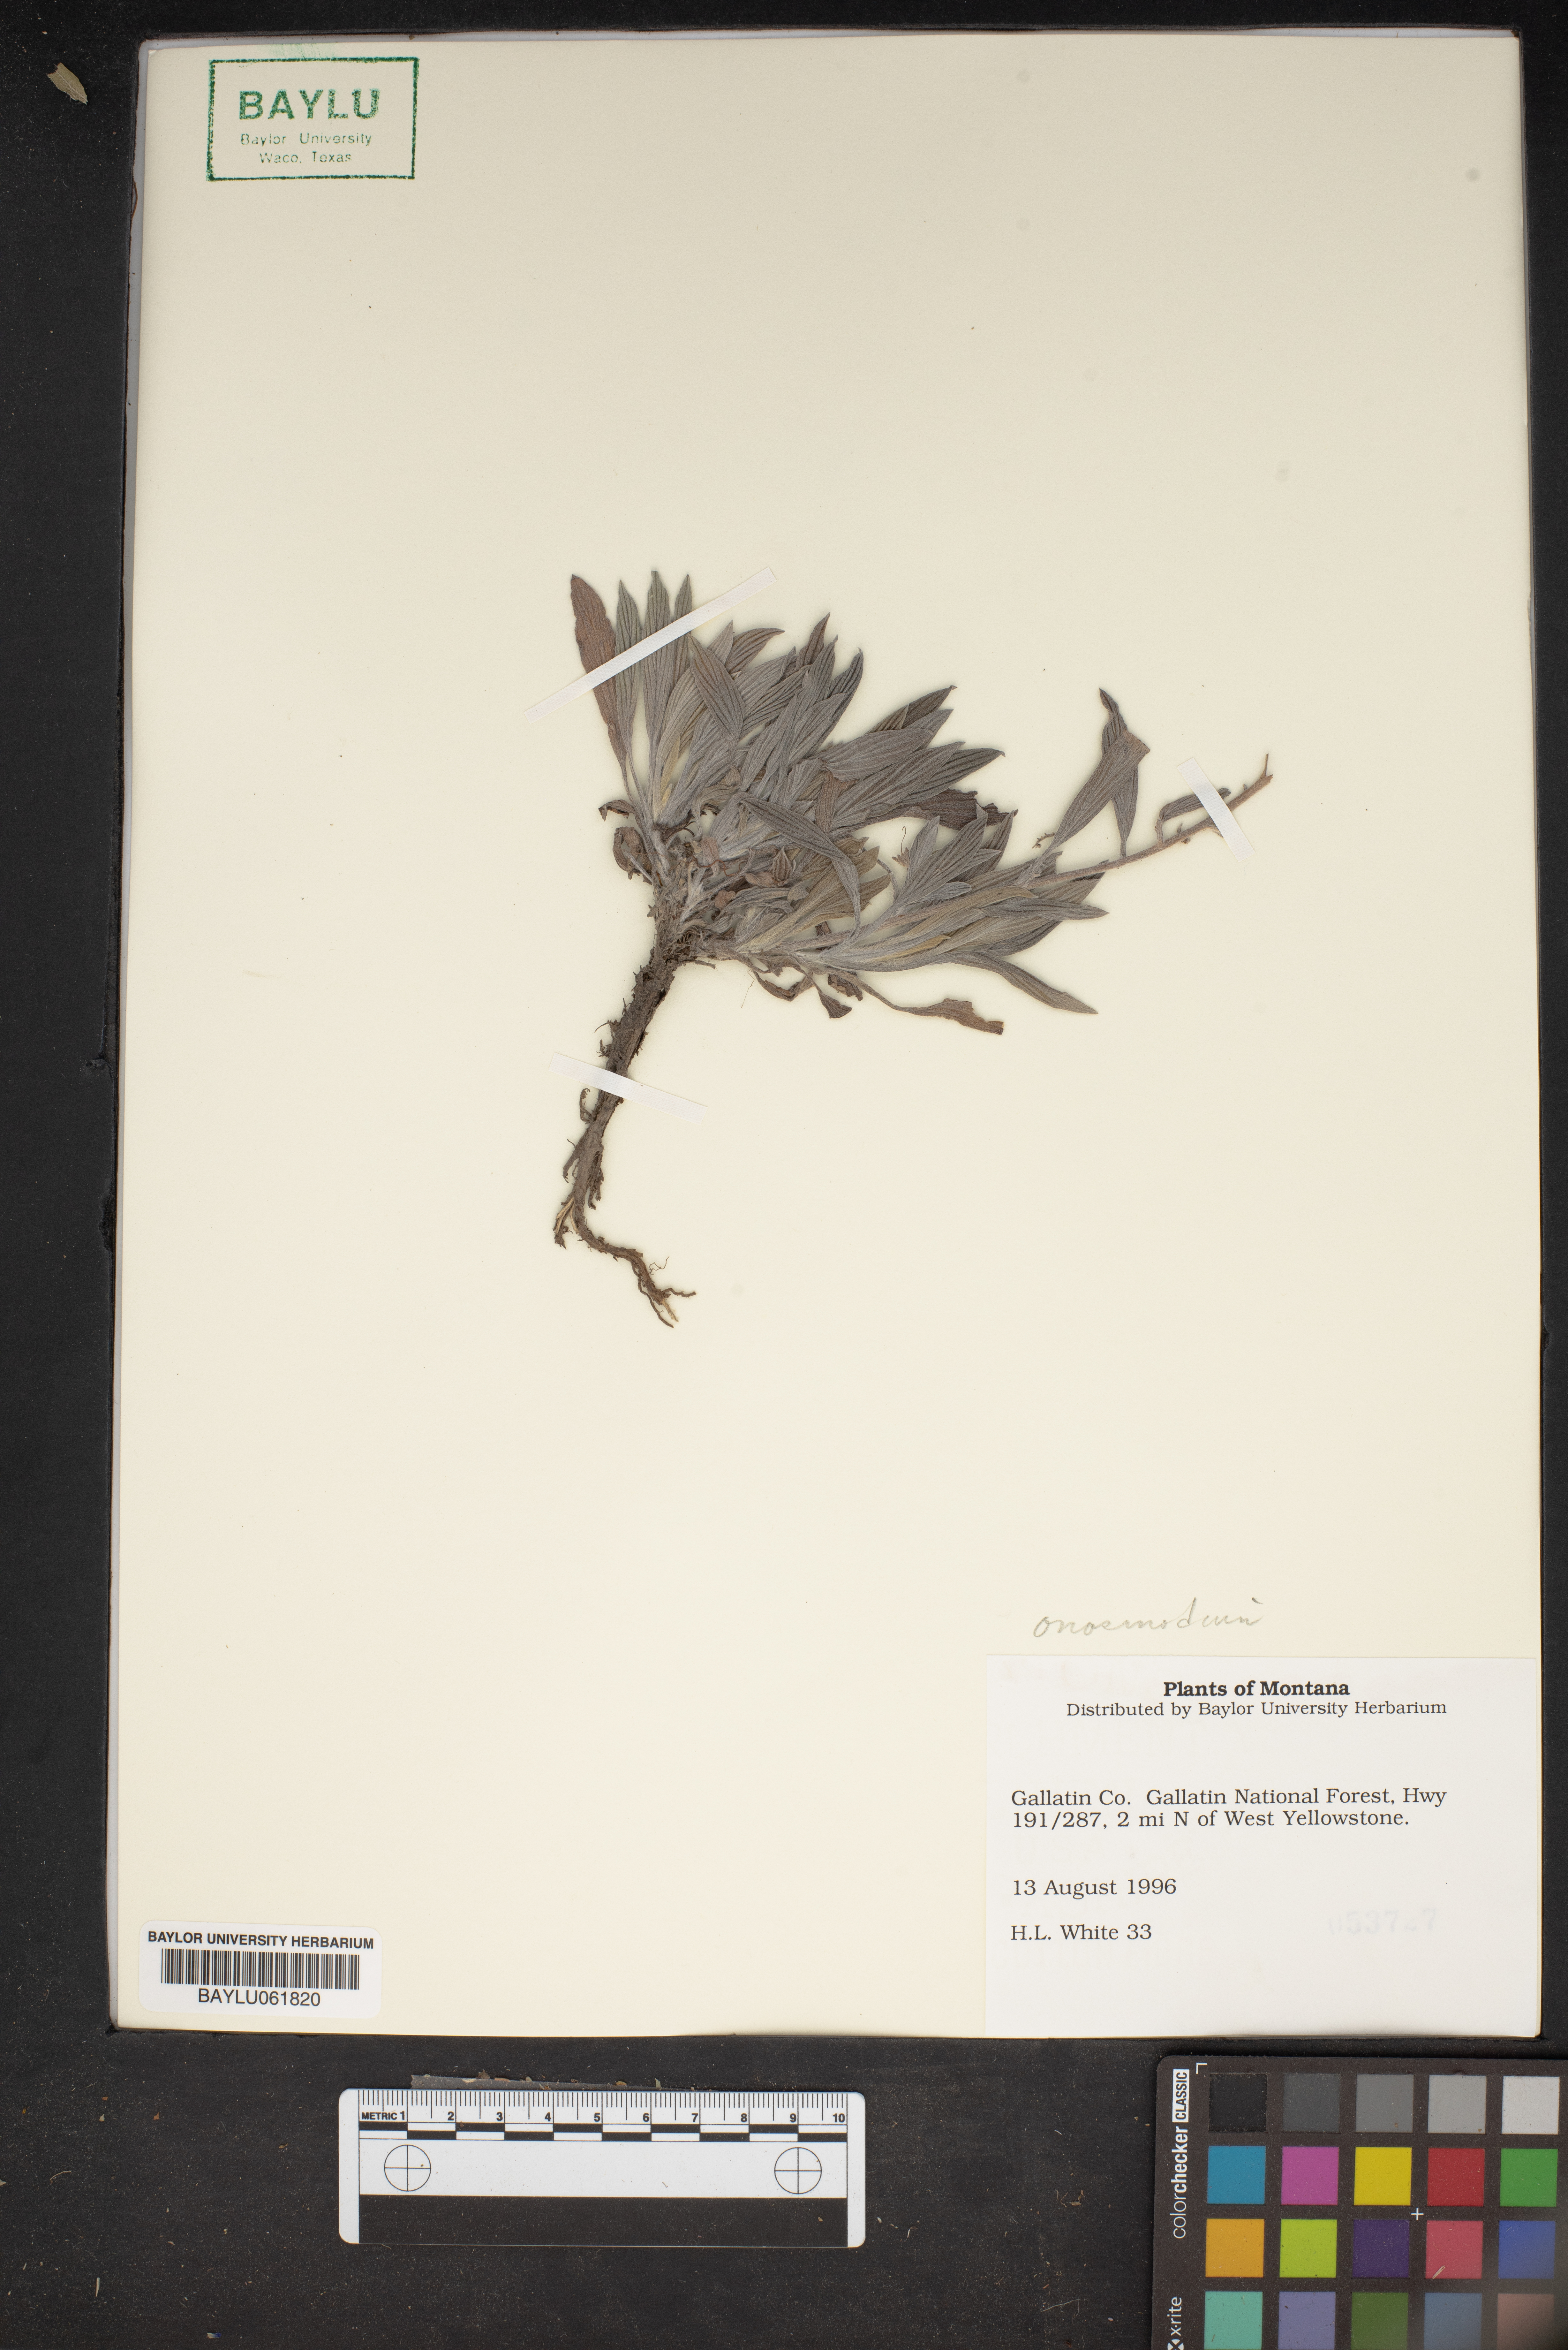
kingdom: Plantae
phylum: Tracheophyta
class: Magnoliopsida
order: Boraginales
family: Boraginaceae
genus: Lithospermum
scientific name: Lithospermum
